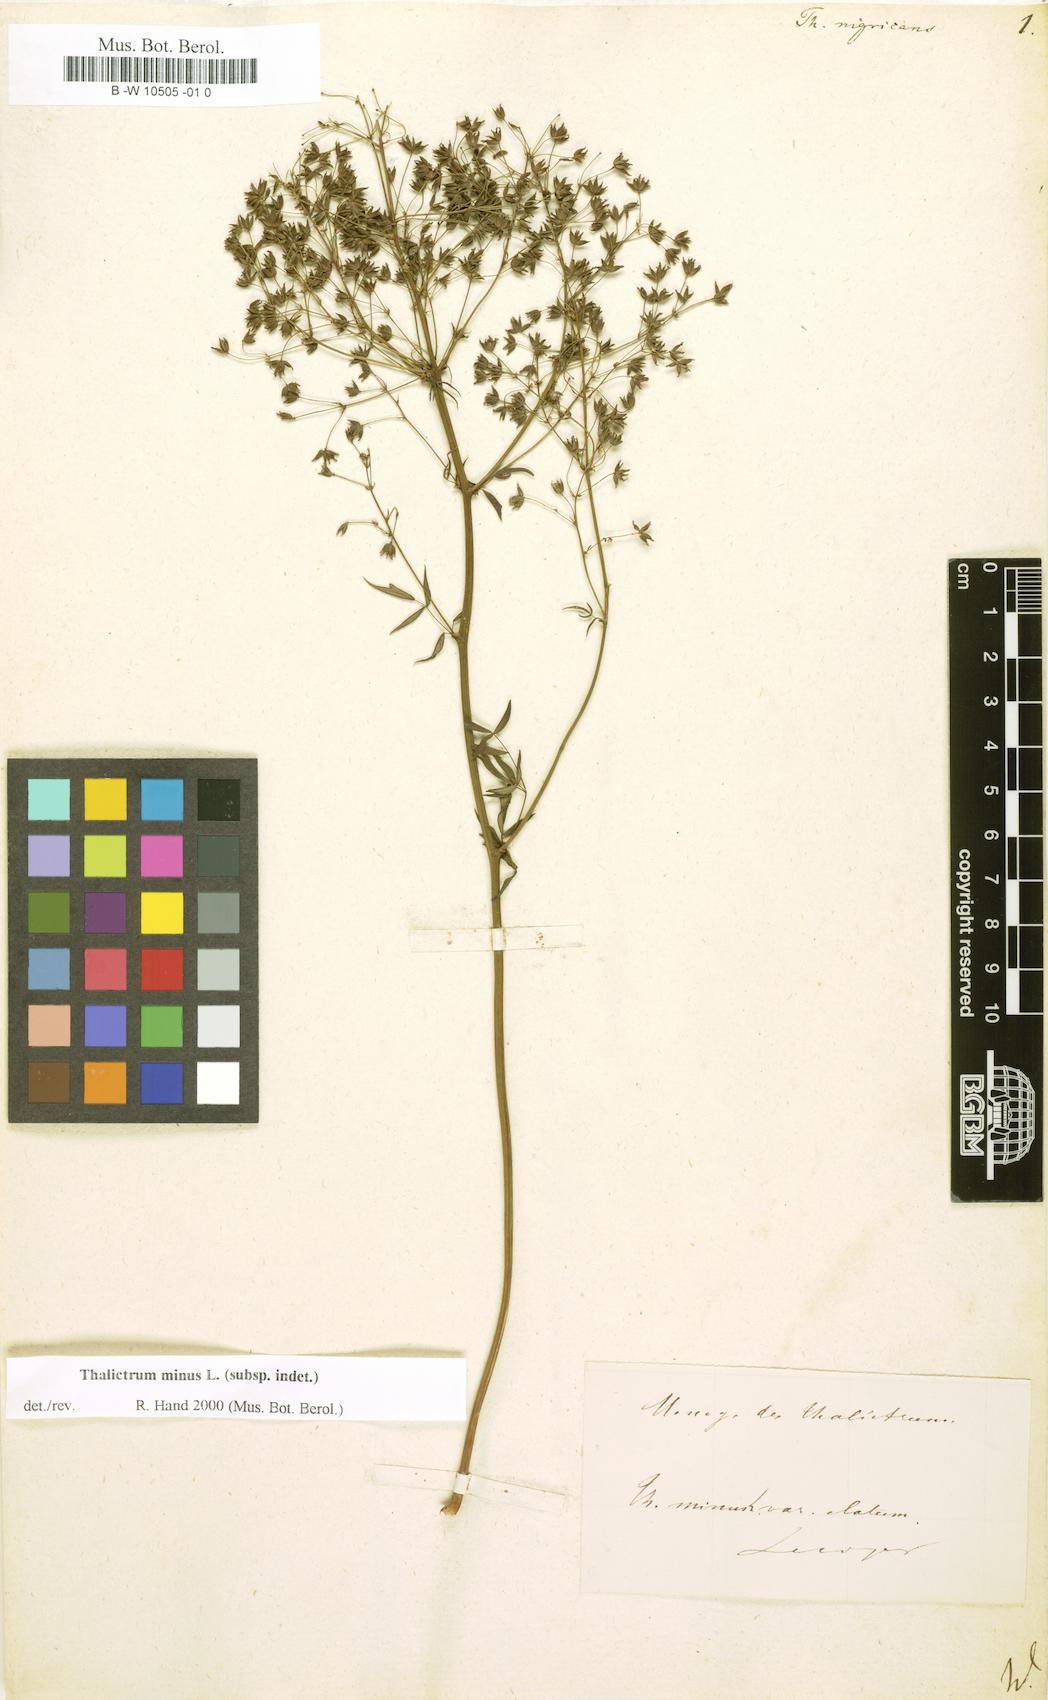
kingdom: Plantae
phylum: Tracheophyta
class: Magnoliopsida
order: Ranunculales
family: Ranunculaceae
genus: Thalictrum
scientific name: Thalictrum
